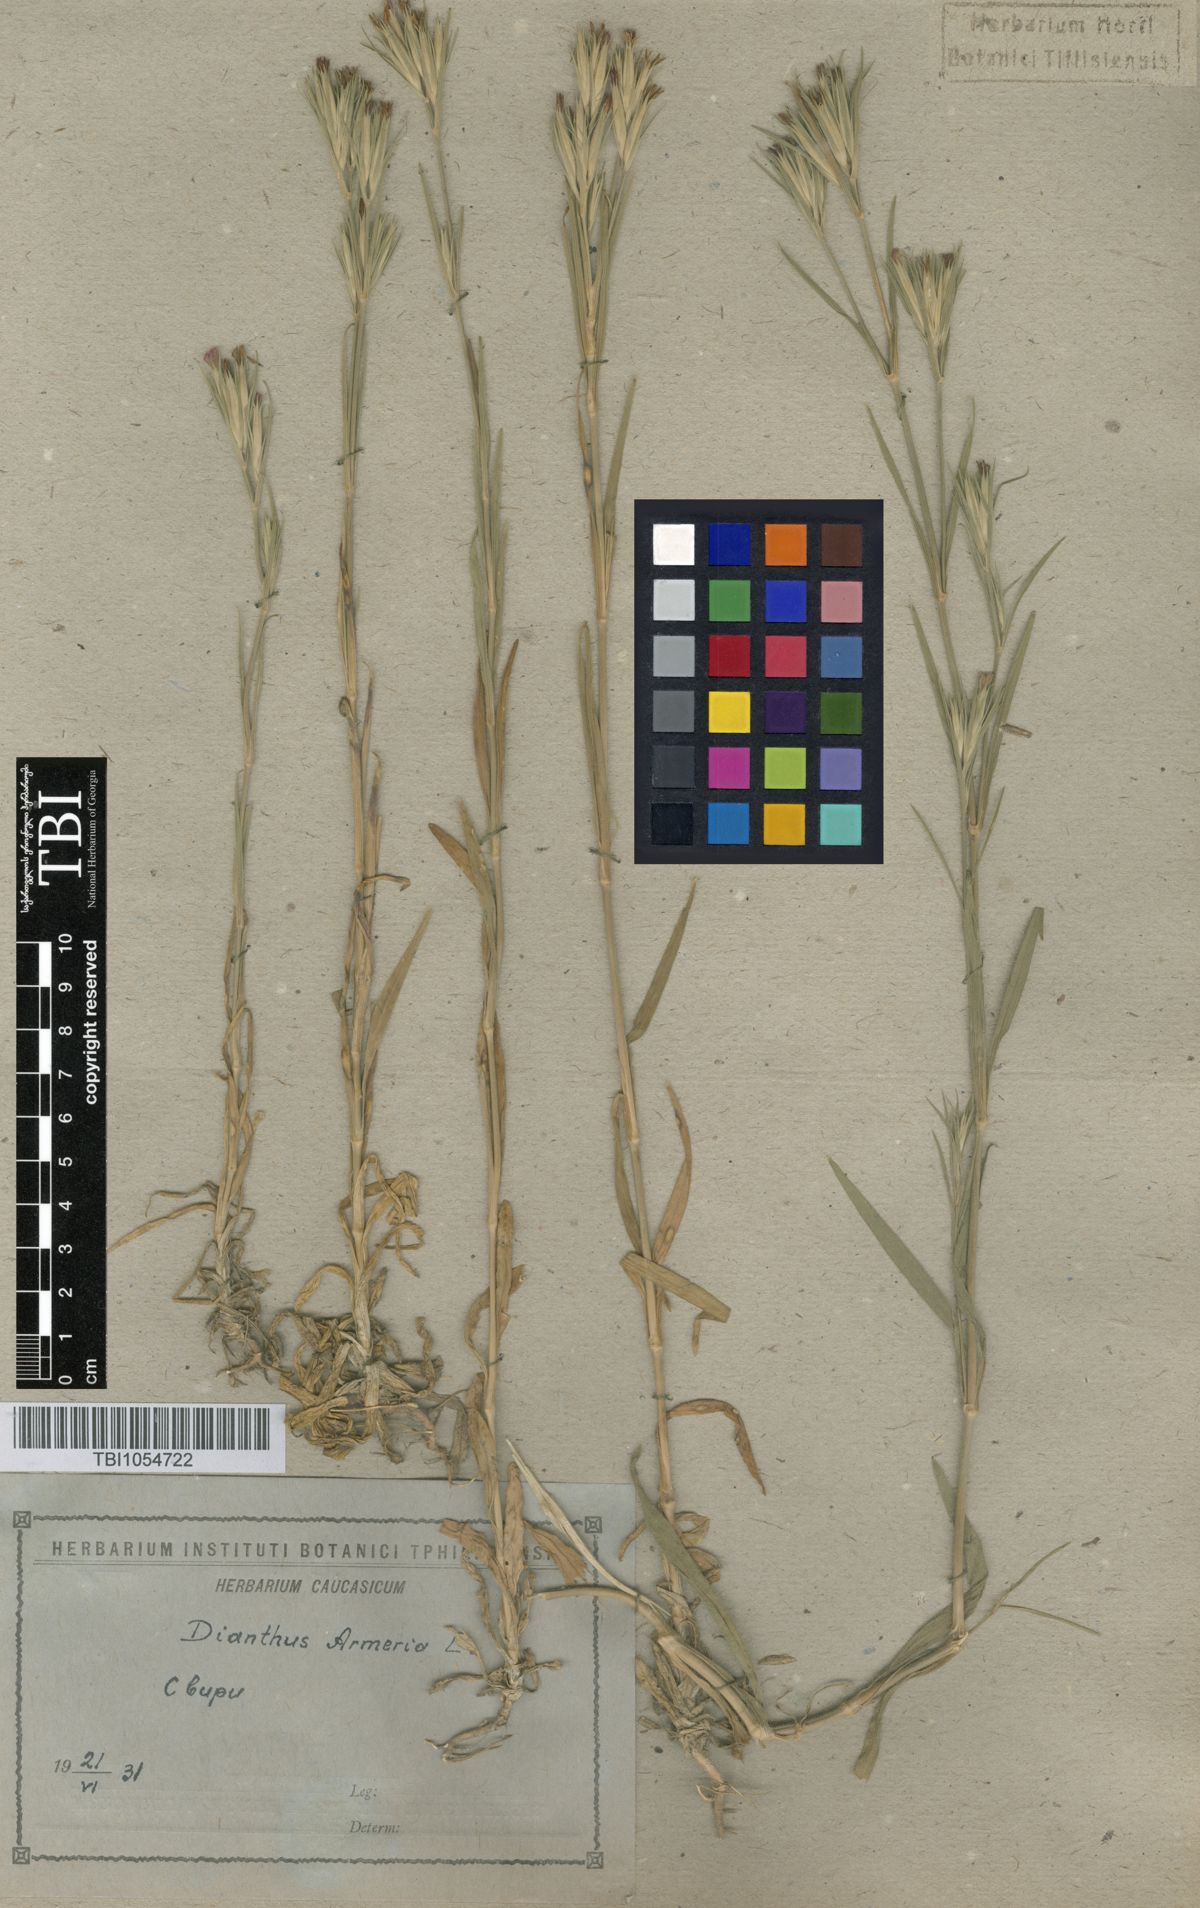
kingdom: Plantae
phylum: Tracheophyta
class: Magnoliopsida
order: Caryophyllales
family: Caryophyllaceae
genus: Dianthus
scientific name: Dianthus armeria
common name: Deptford pink
